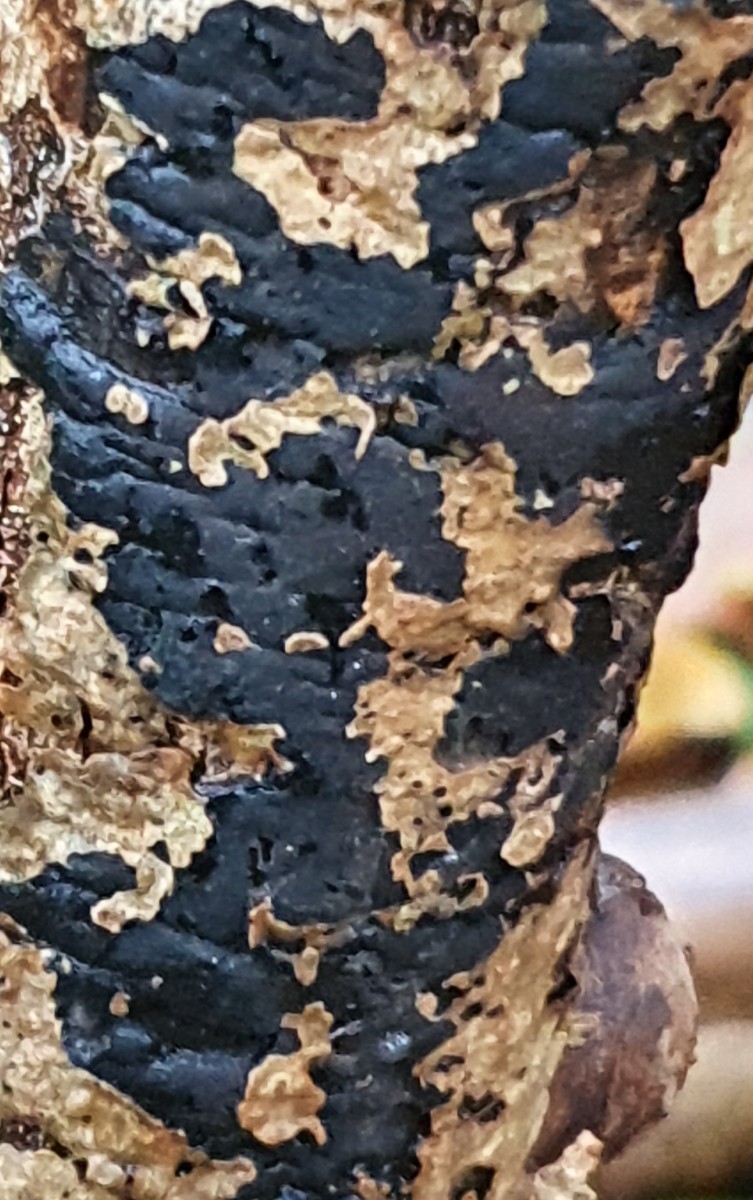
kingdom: Fungi
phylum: Ascomycota
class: Sordariomycetes
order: Xylariales
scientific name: Xylariales
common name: stødsvampordenen
